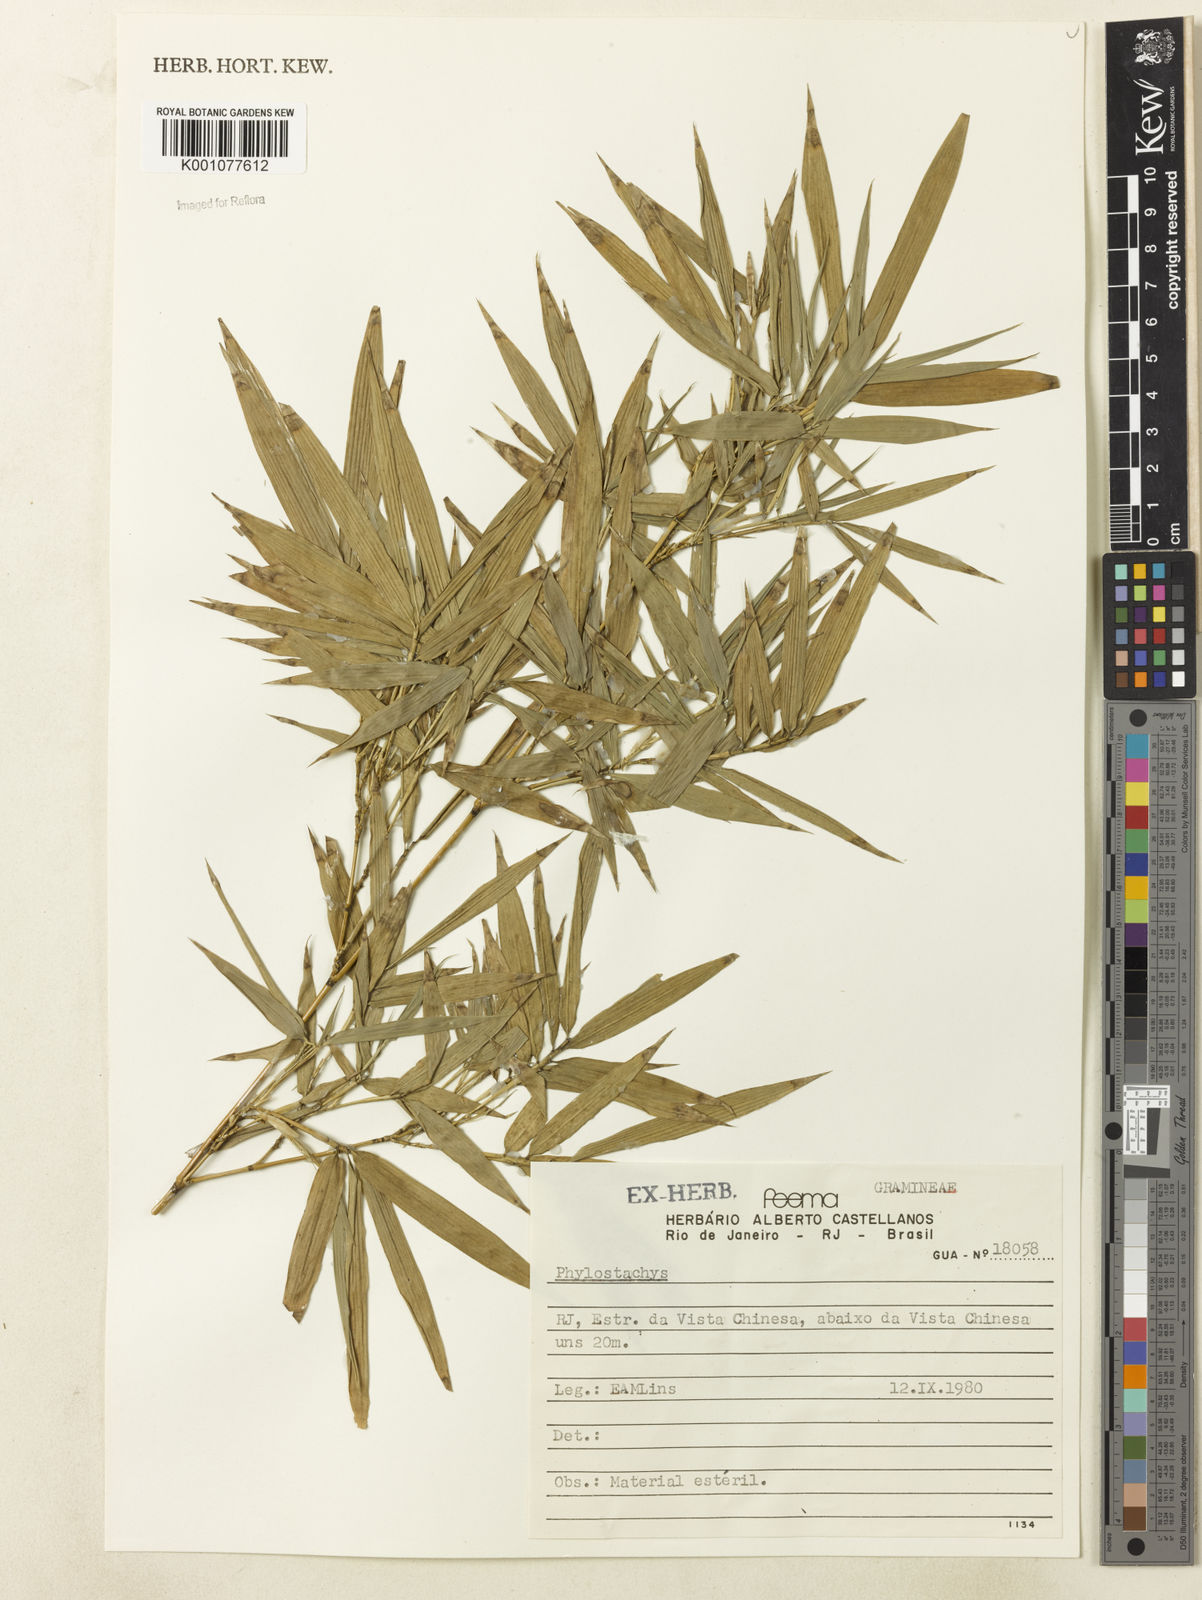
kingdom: Plantae
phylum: Tracheophyta
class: Liliopsida
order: Poales
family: Poaceae
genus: Phyllostachys
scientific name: Phyllostachys
